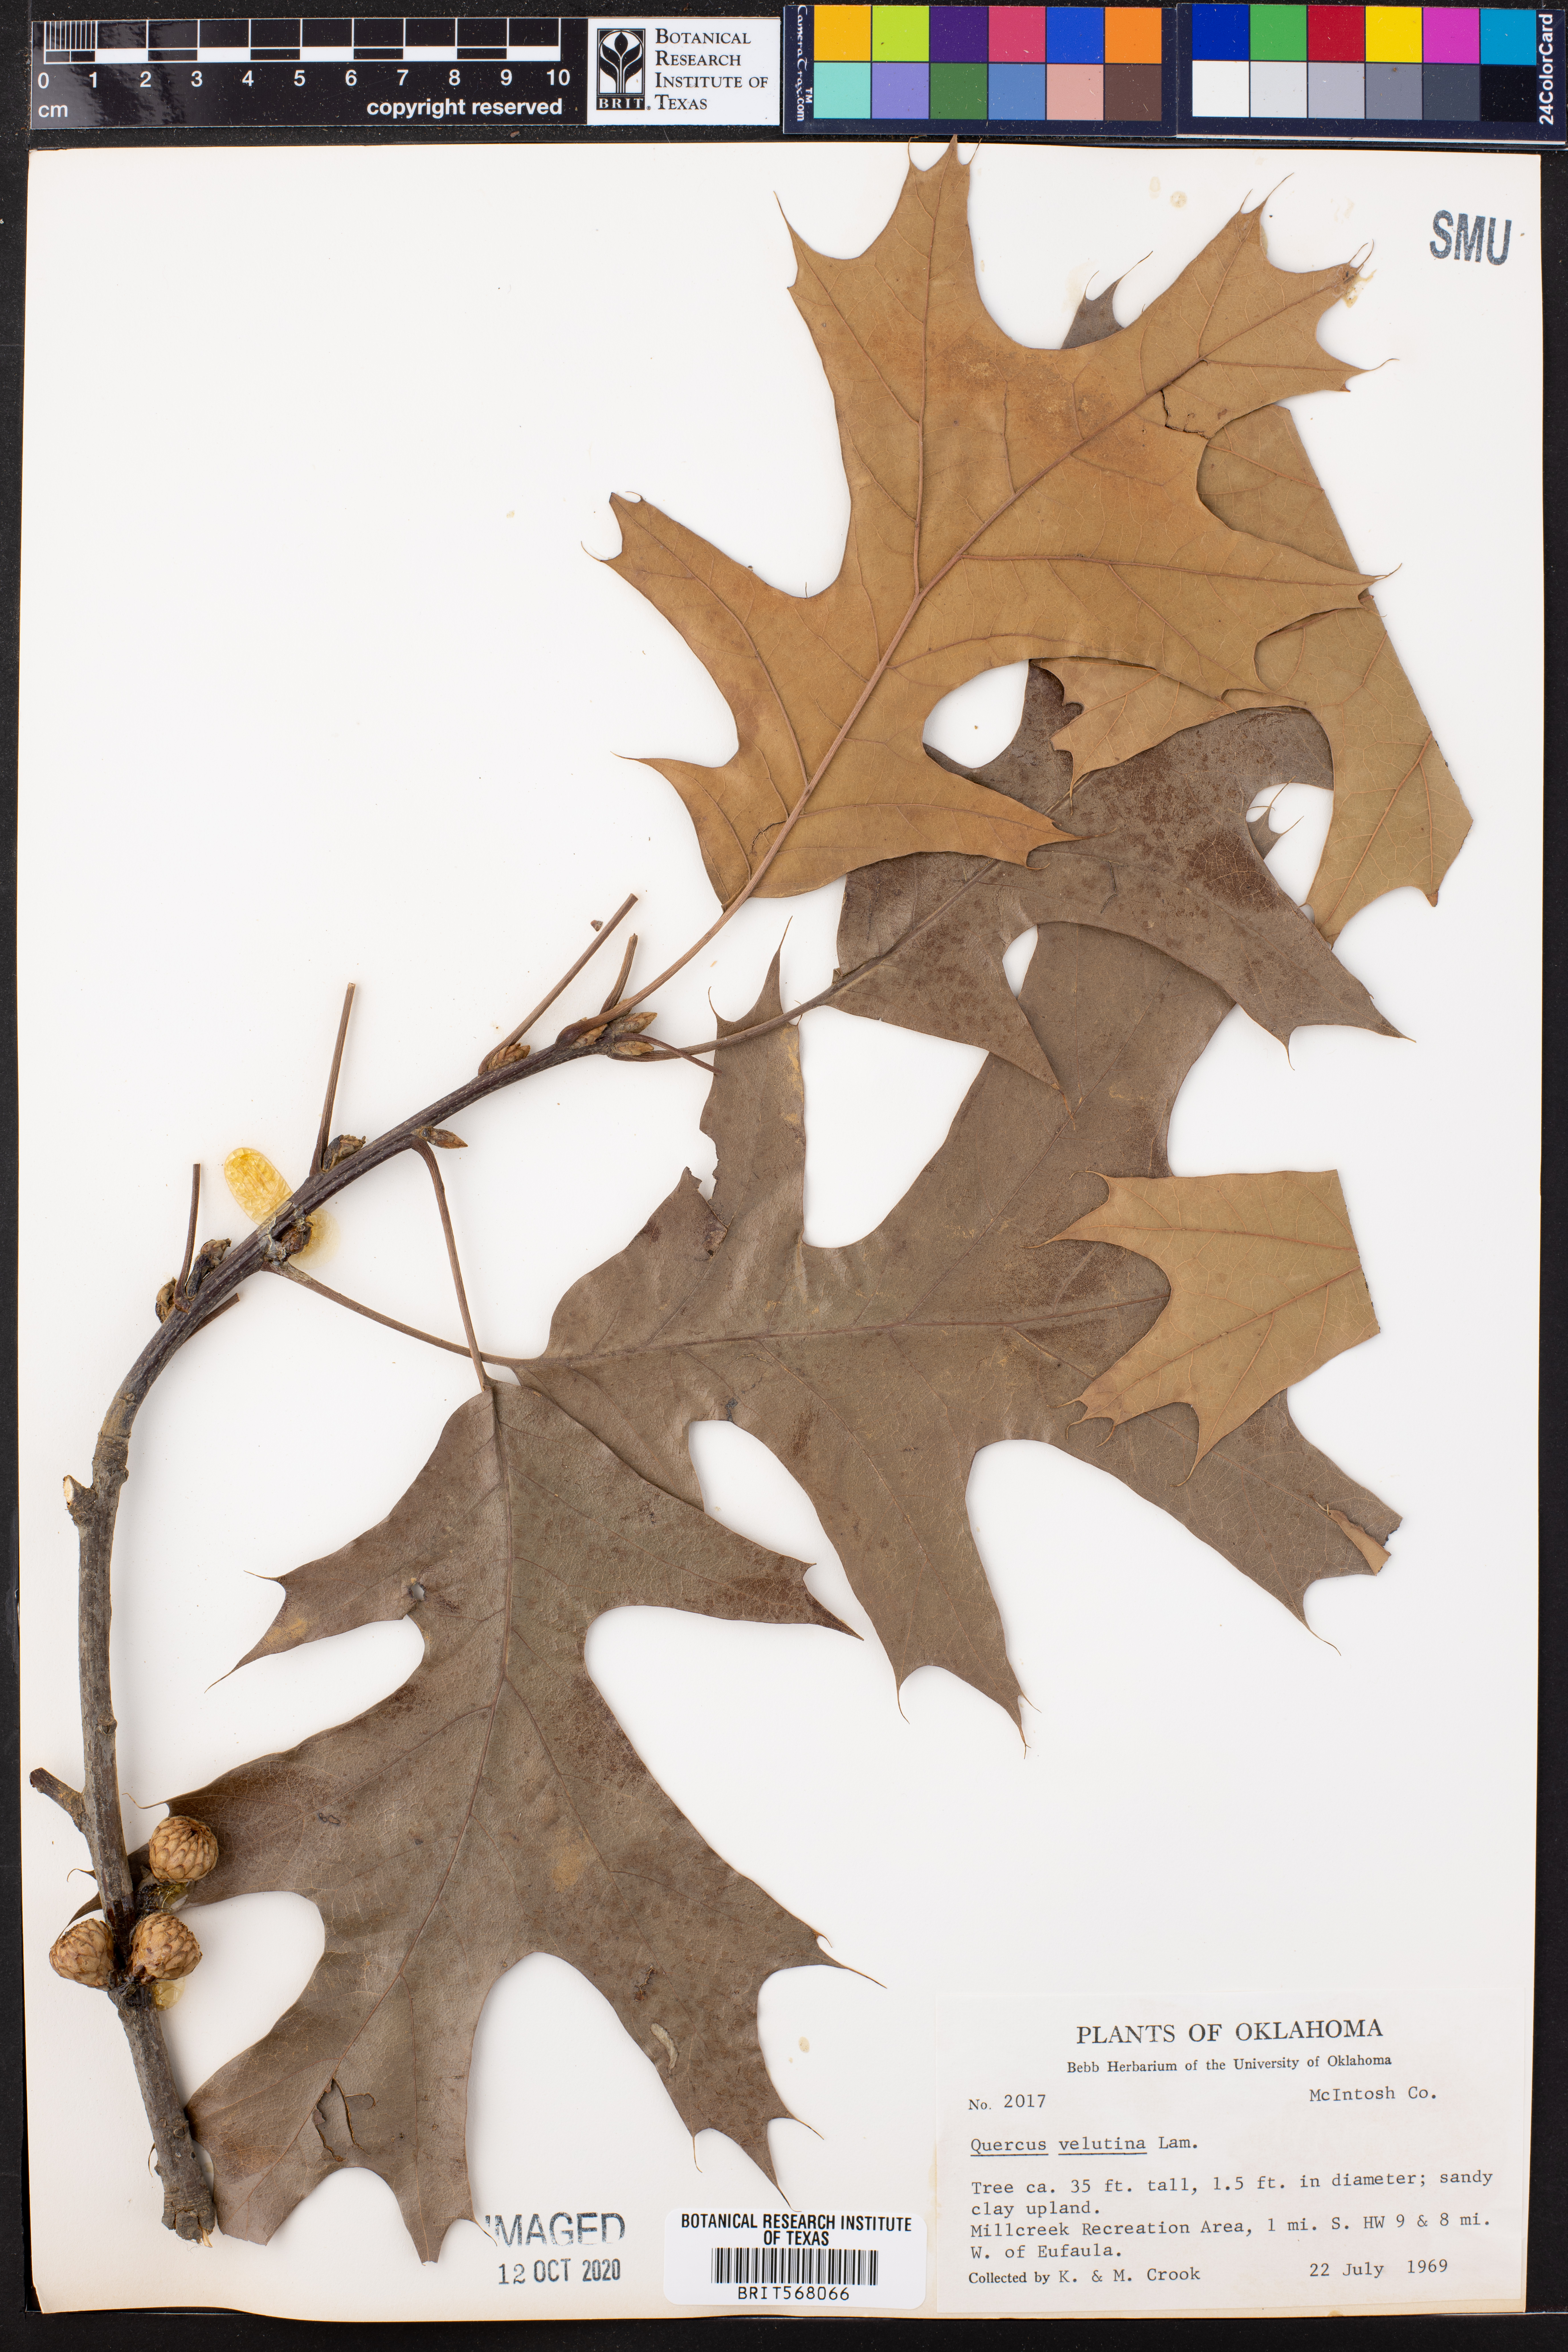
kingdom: Plantae
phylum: Tracheophyta
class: Magnoliopsida
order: Fagales
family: Fagaceae
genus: Quercus
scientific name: Quercus velutina
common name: Black oak
